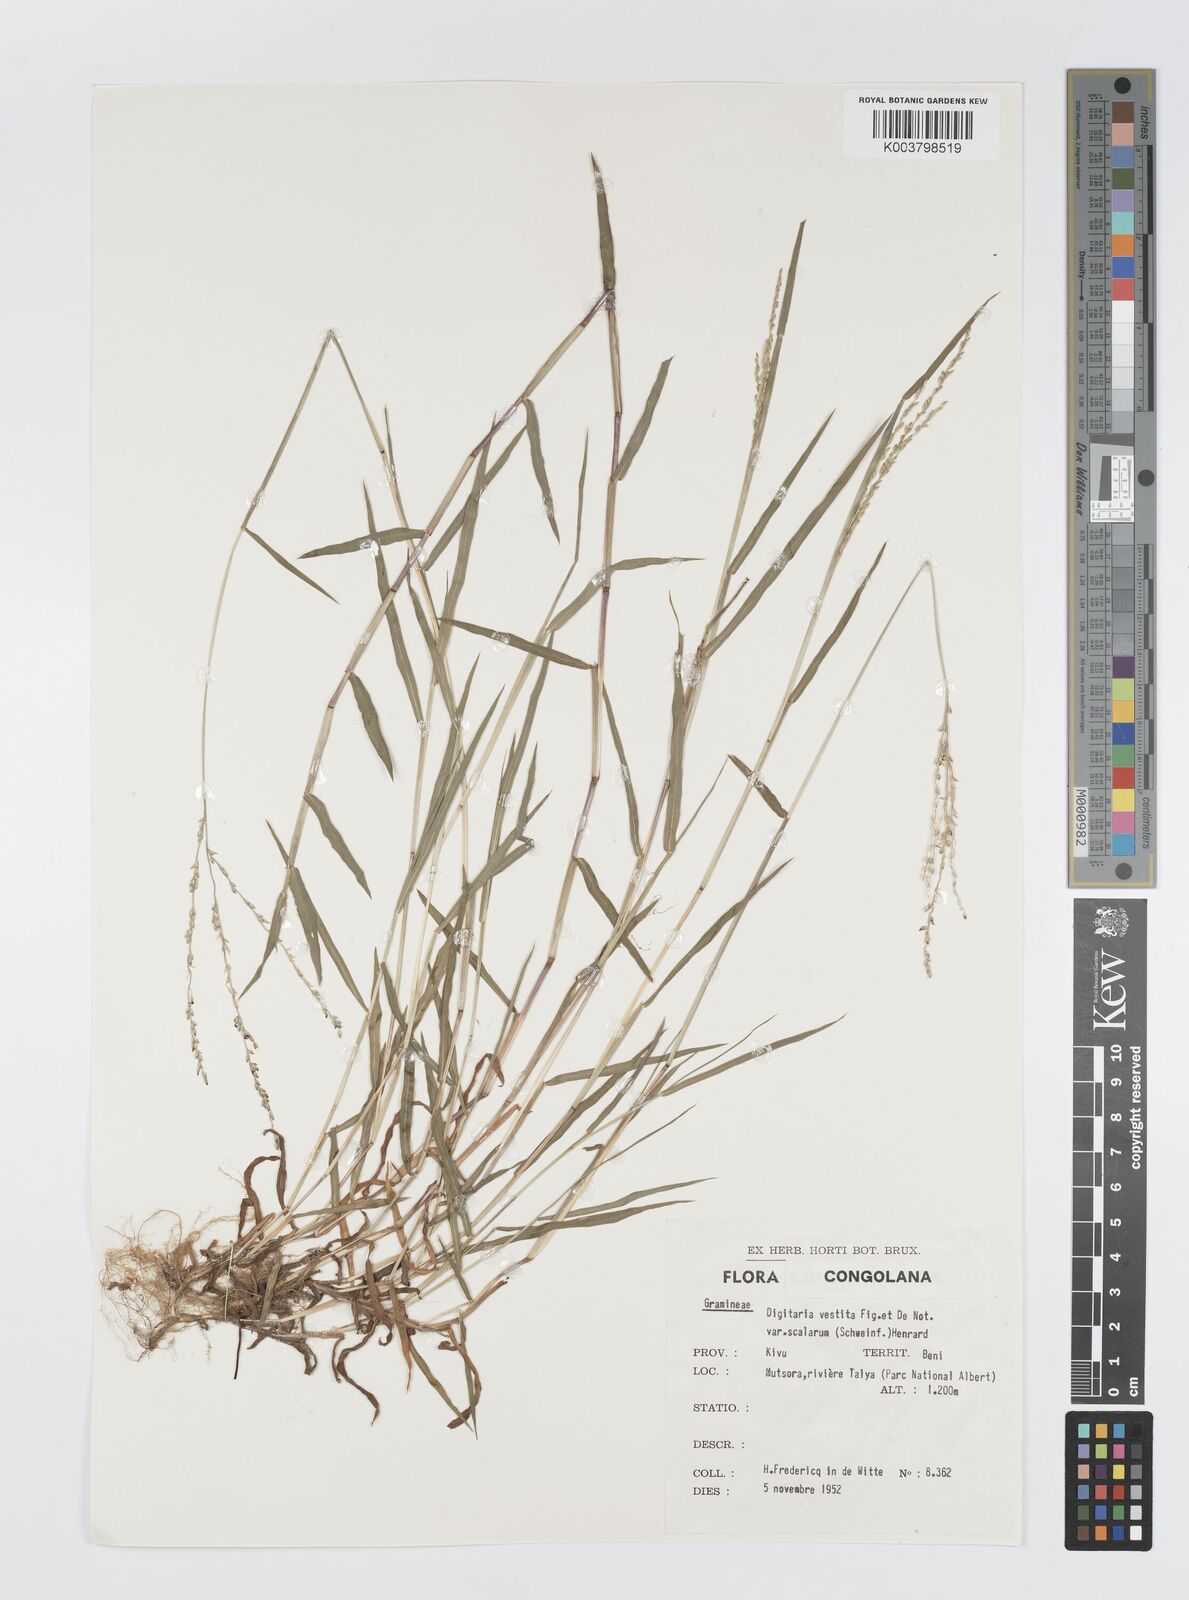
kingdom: Plantae
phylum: Tracheophyta
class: Liliopsida
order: Poales
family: Poaceae
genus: Digitaria
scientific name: Digitaria abyssinica
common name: African couchgrass
